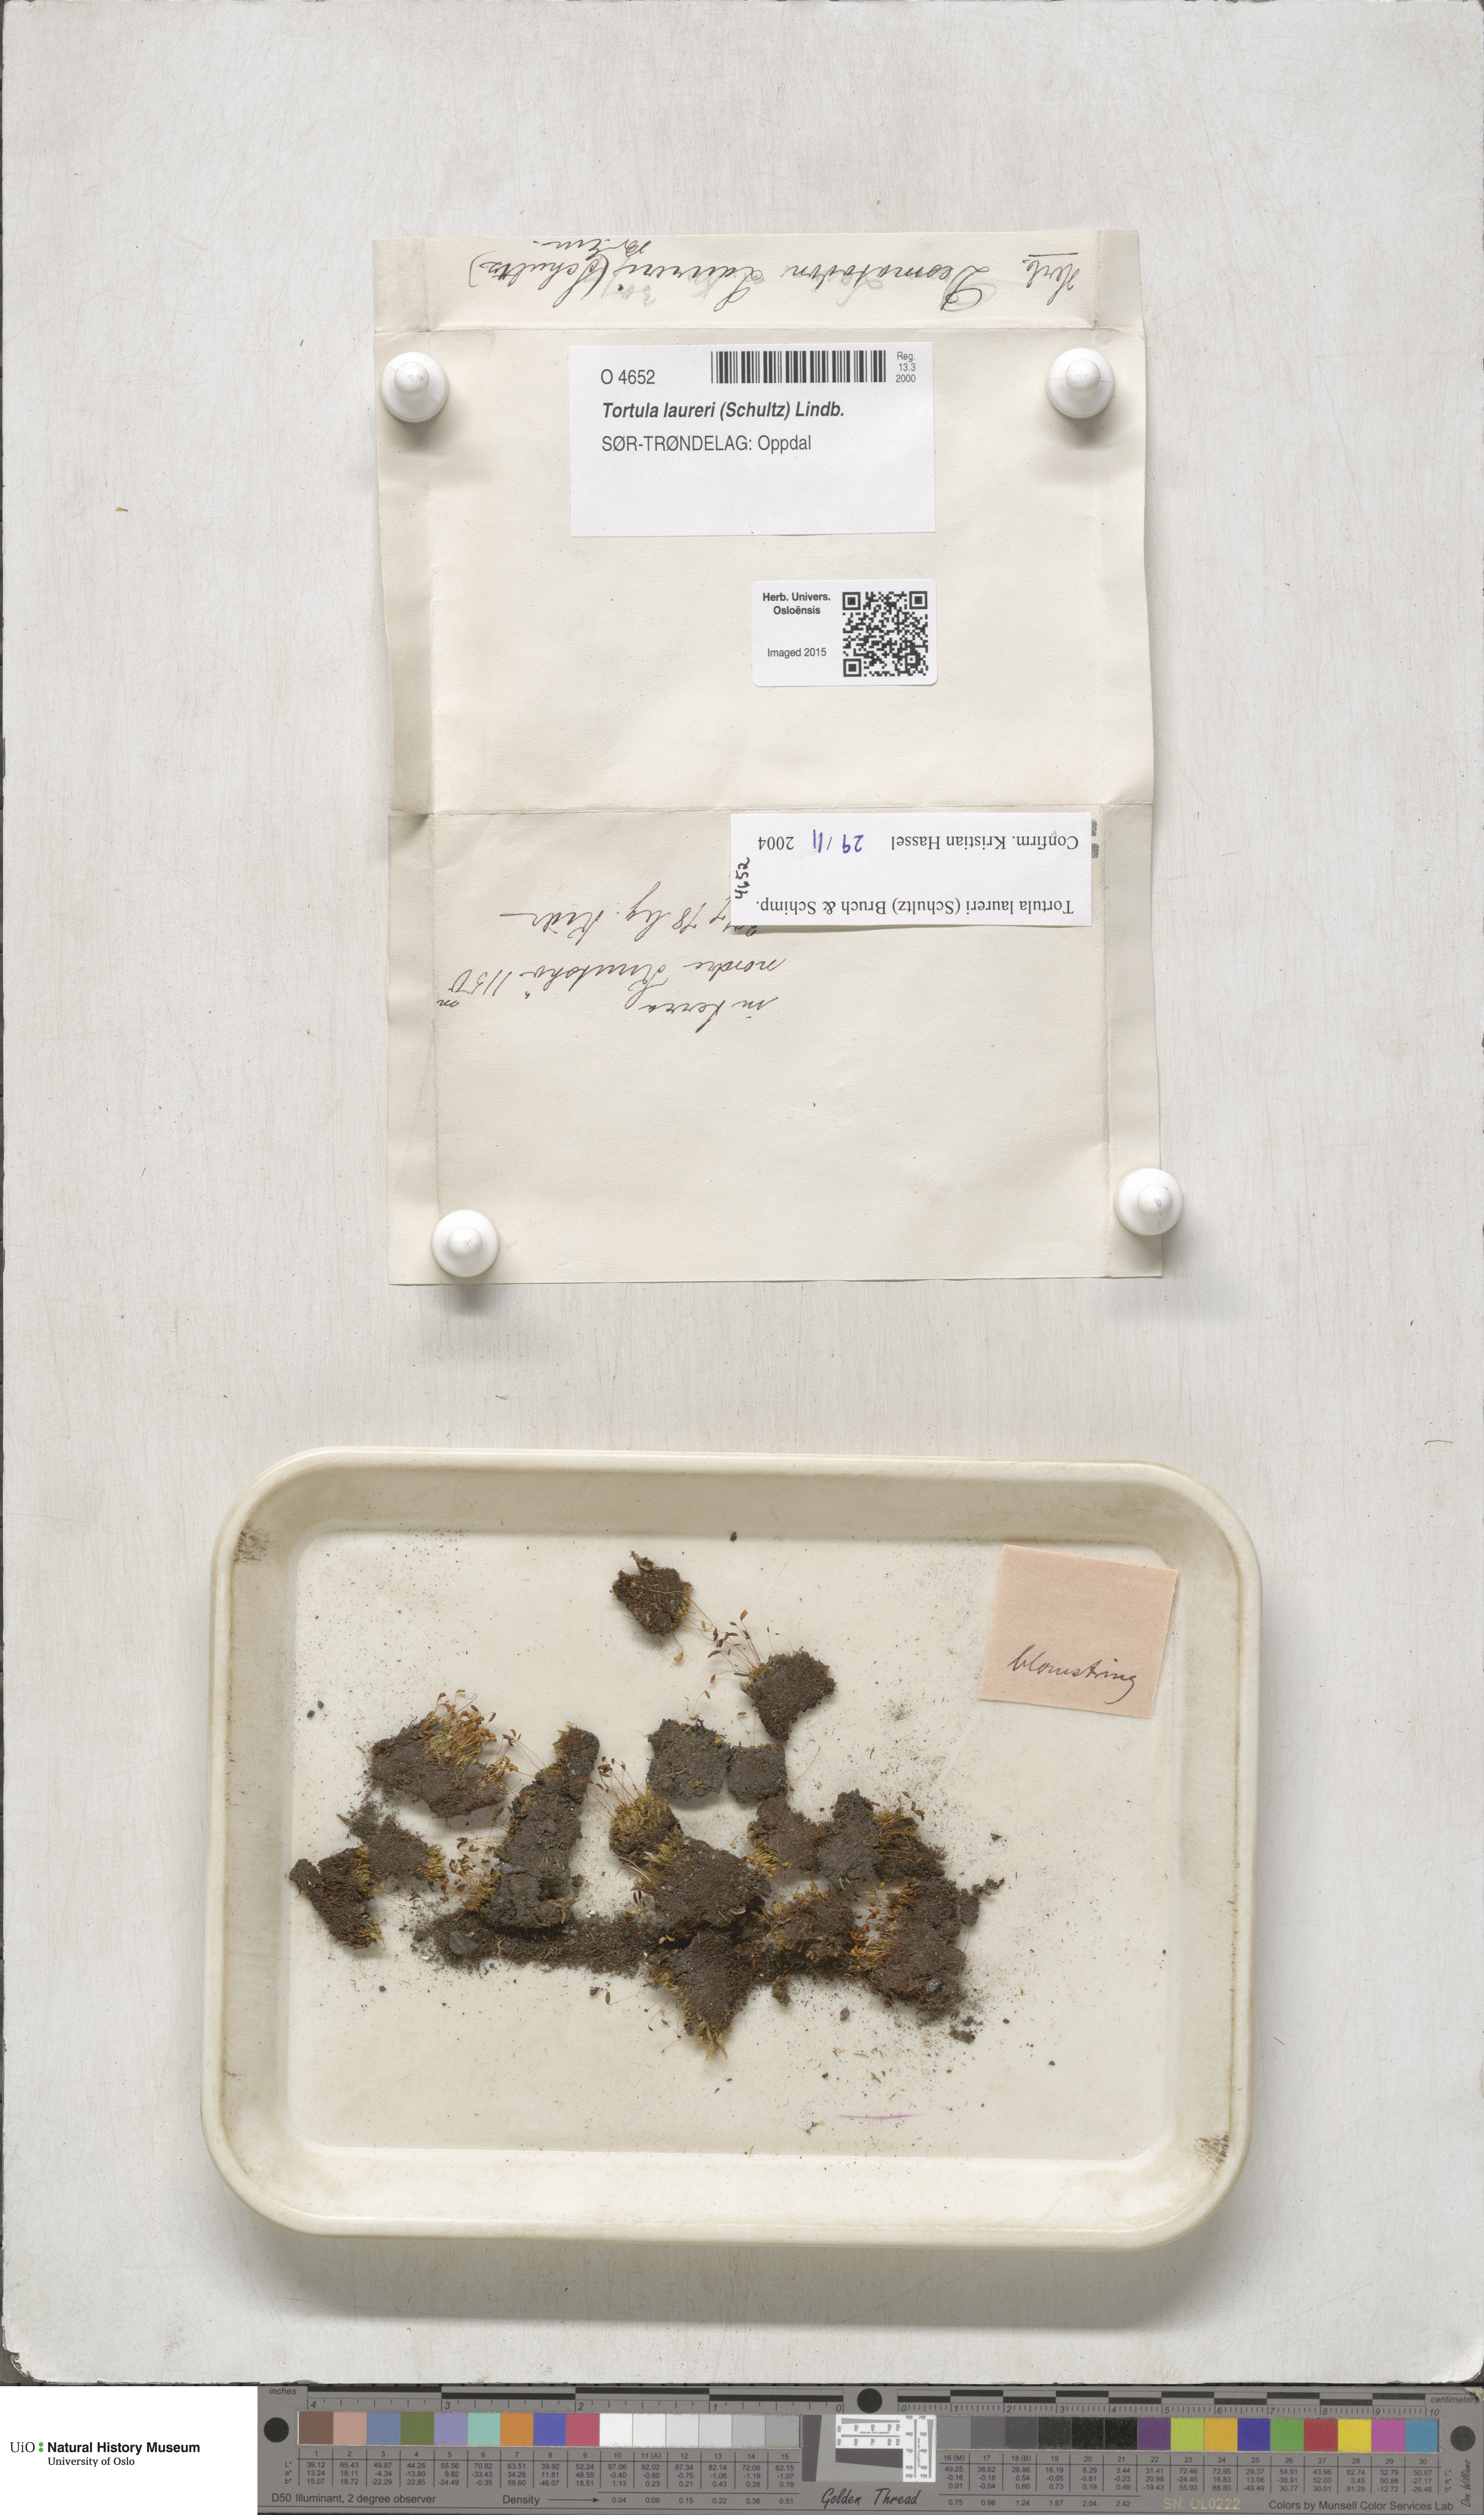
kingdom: Plantae
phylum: Bryophyta
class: Bryopsida
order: Pottiales
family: Pottiaceae
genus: Tortula
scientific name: Tortula laureri
